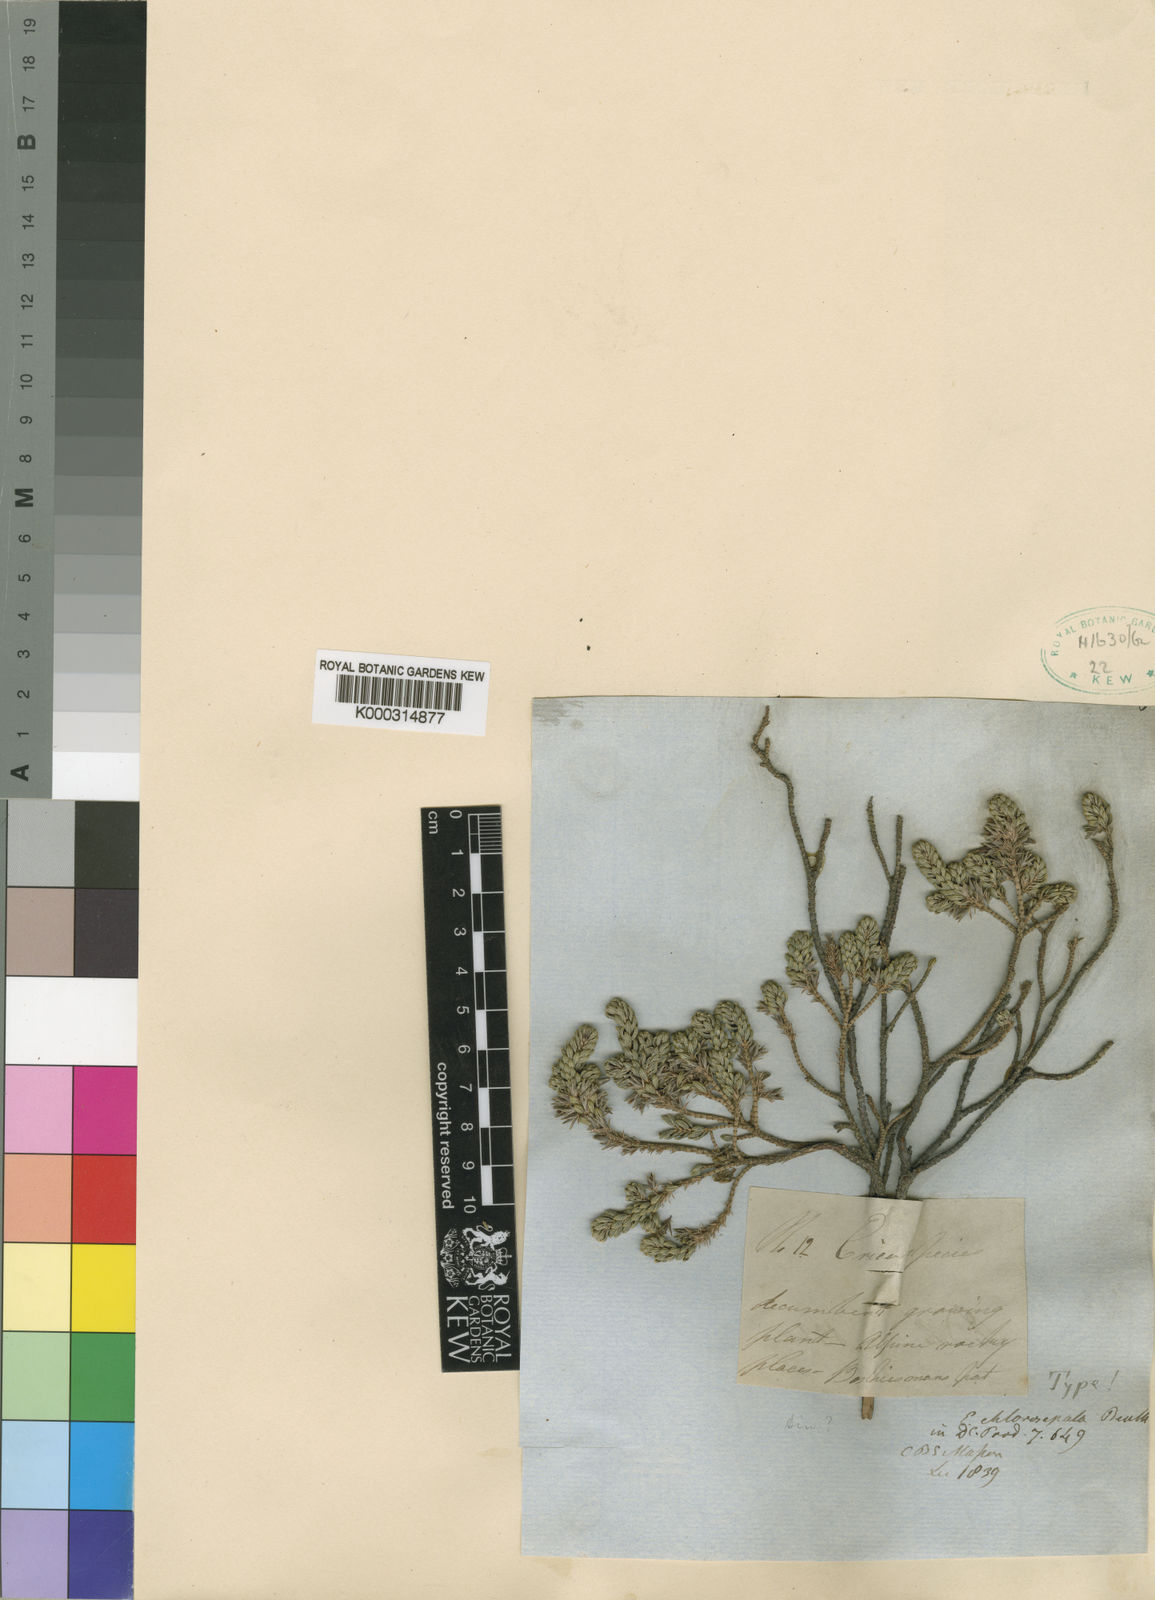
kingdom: Plantae
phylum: Tracheophyta
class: Magnoliopsida
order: Ericales
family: Ericaceae
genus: Erica
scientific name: Erica chlorosepala
